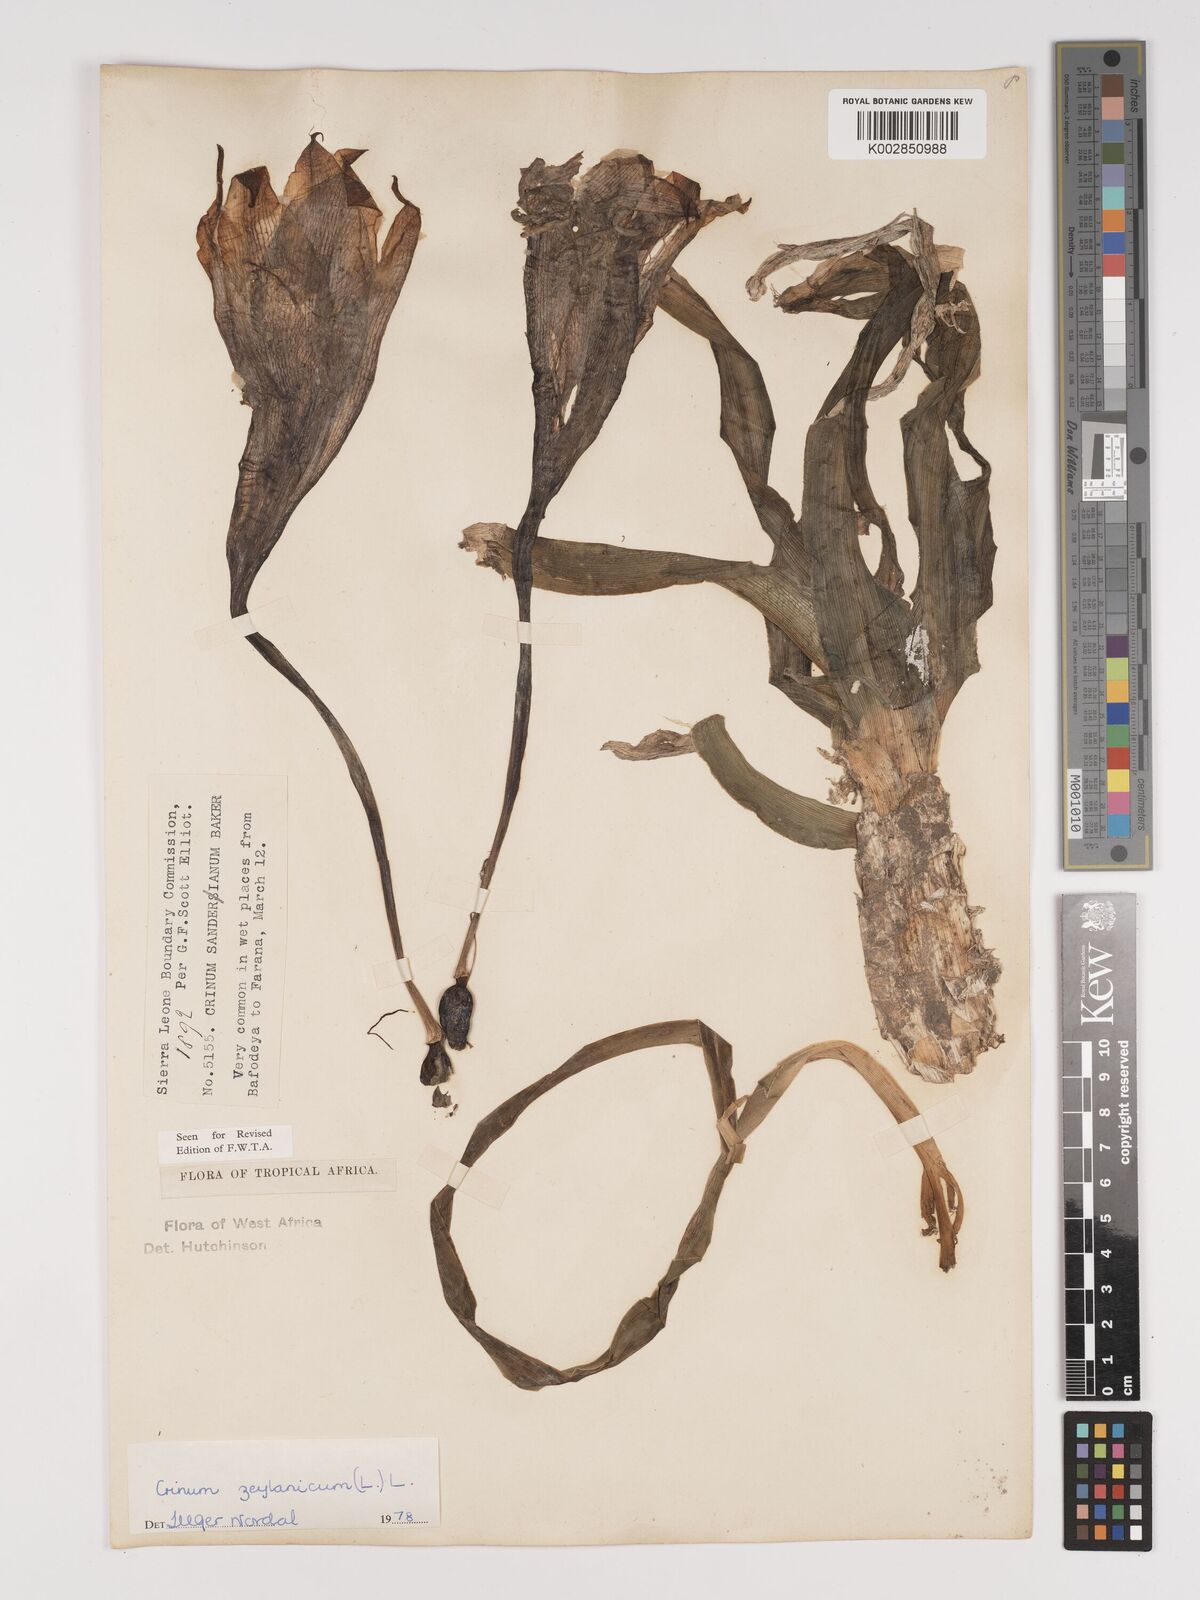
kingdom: Plantae
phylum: Tracheophyta
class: Liliopsida
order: Asparagales
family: Amaryllidaceae
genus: Crinum
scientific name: Crinum ornatum
